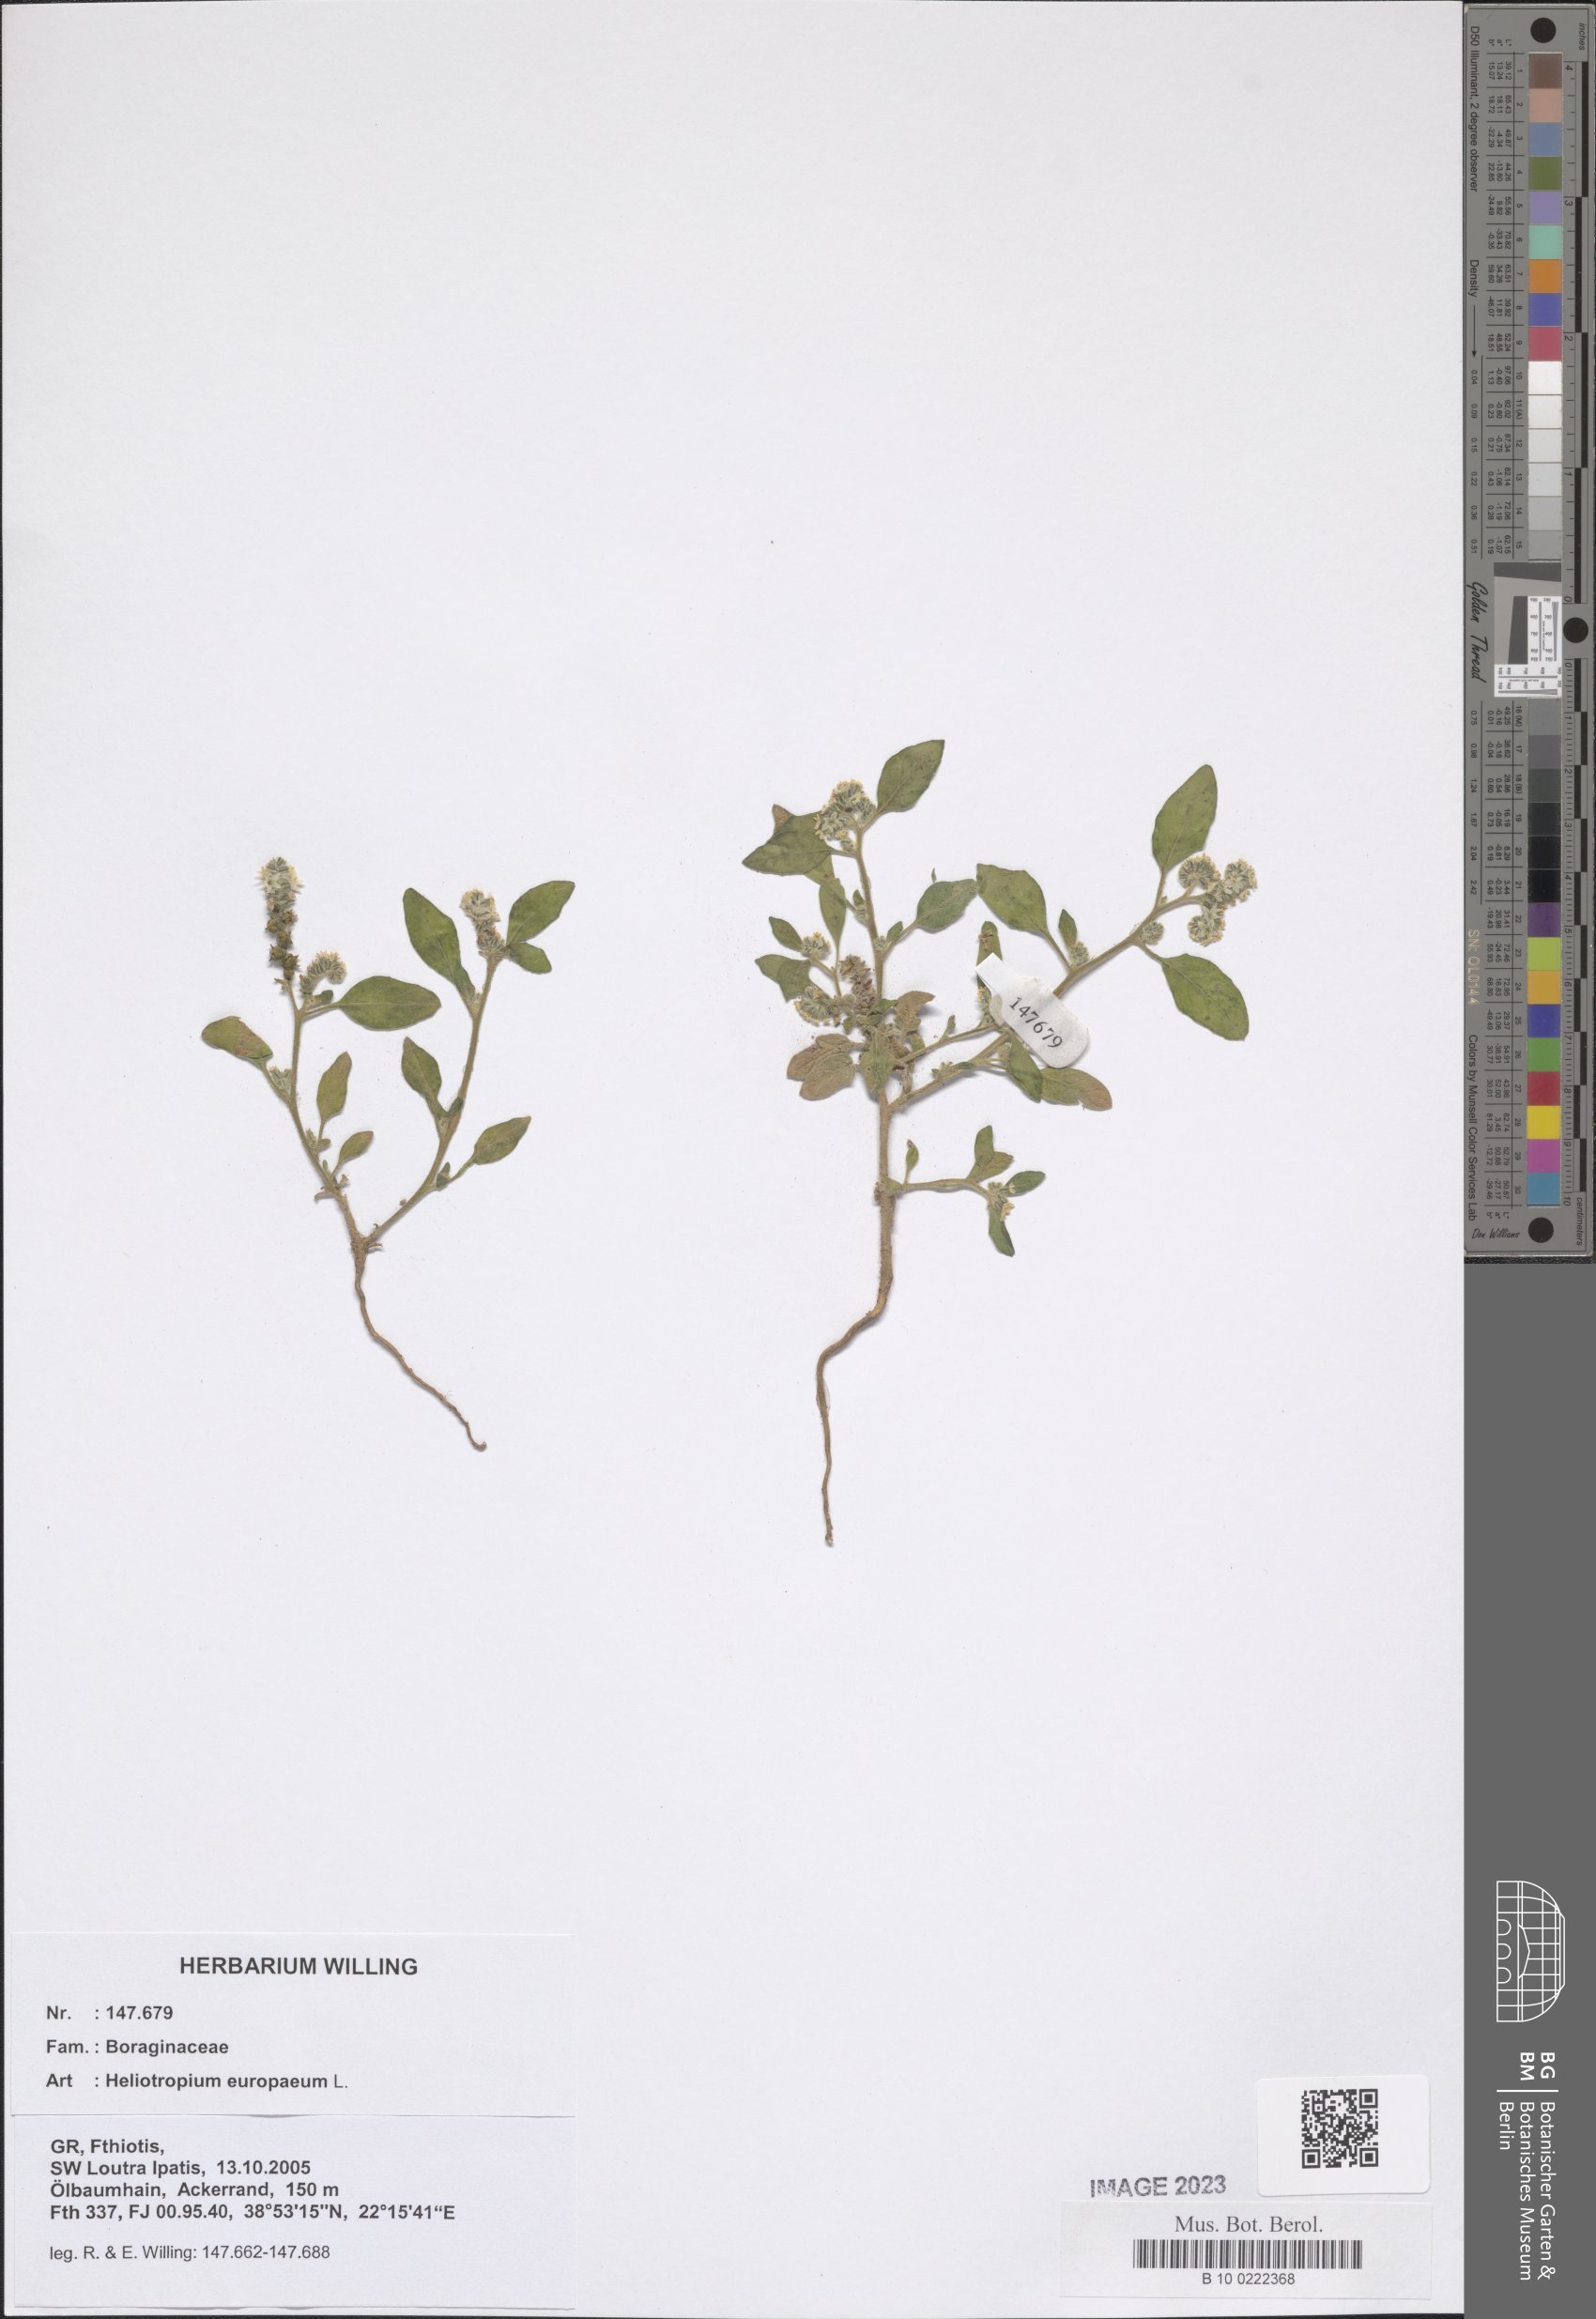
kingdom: Plantae
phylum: Tracheophyta
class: Magnoliopsida
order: Boraginales
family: Heliotropiaceae
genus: Heliotropium
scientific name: Heliotropium europaeum
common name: European heliotrope
